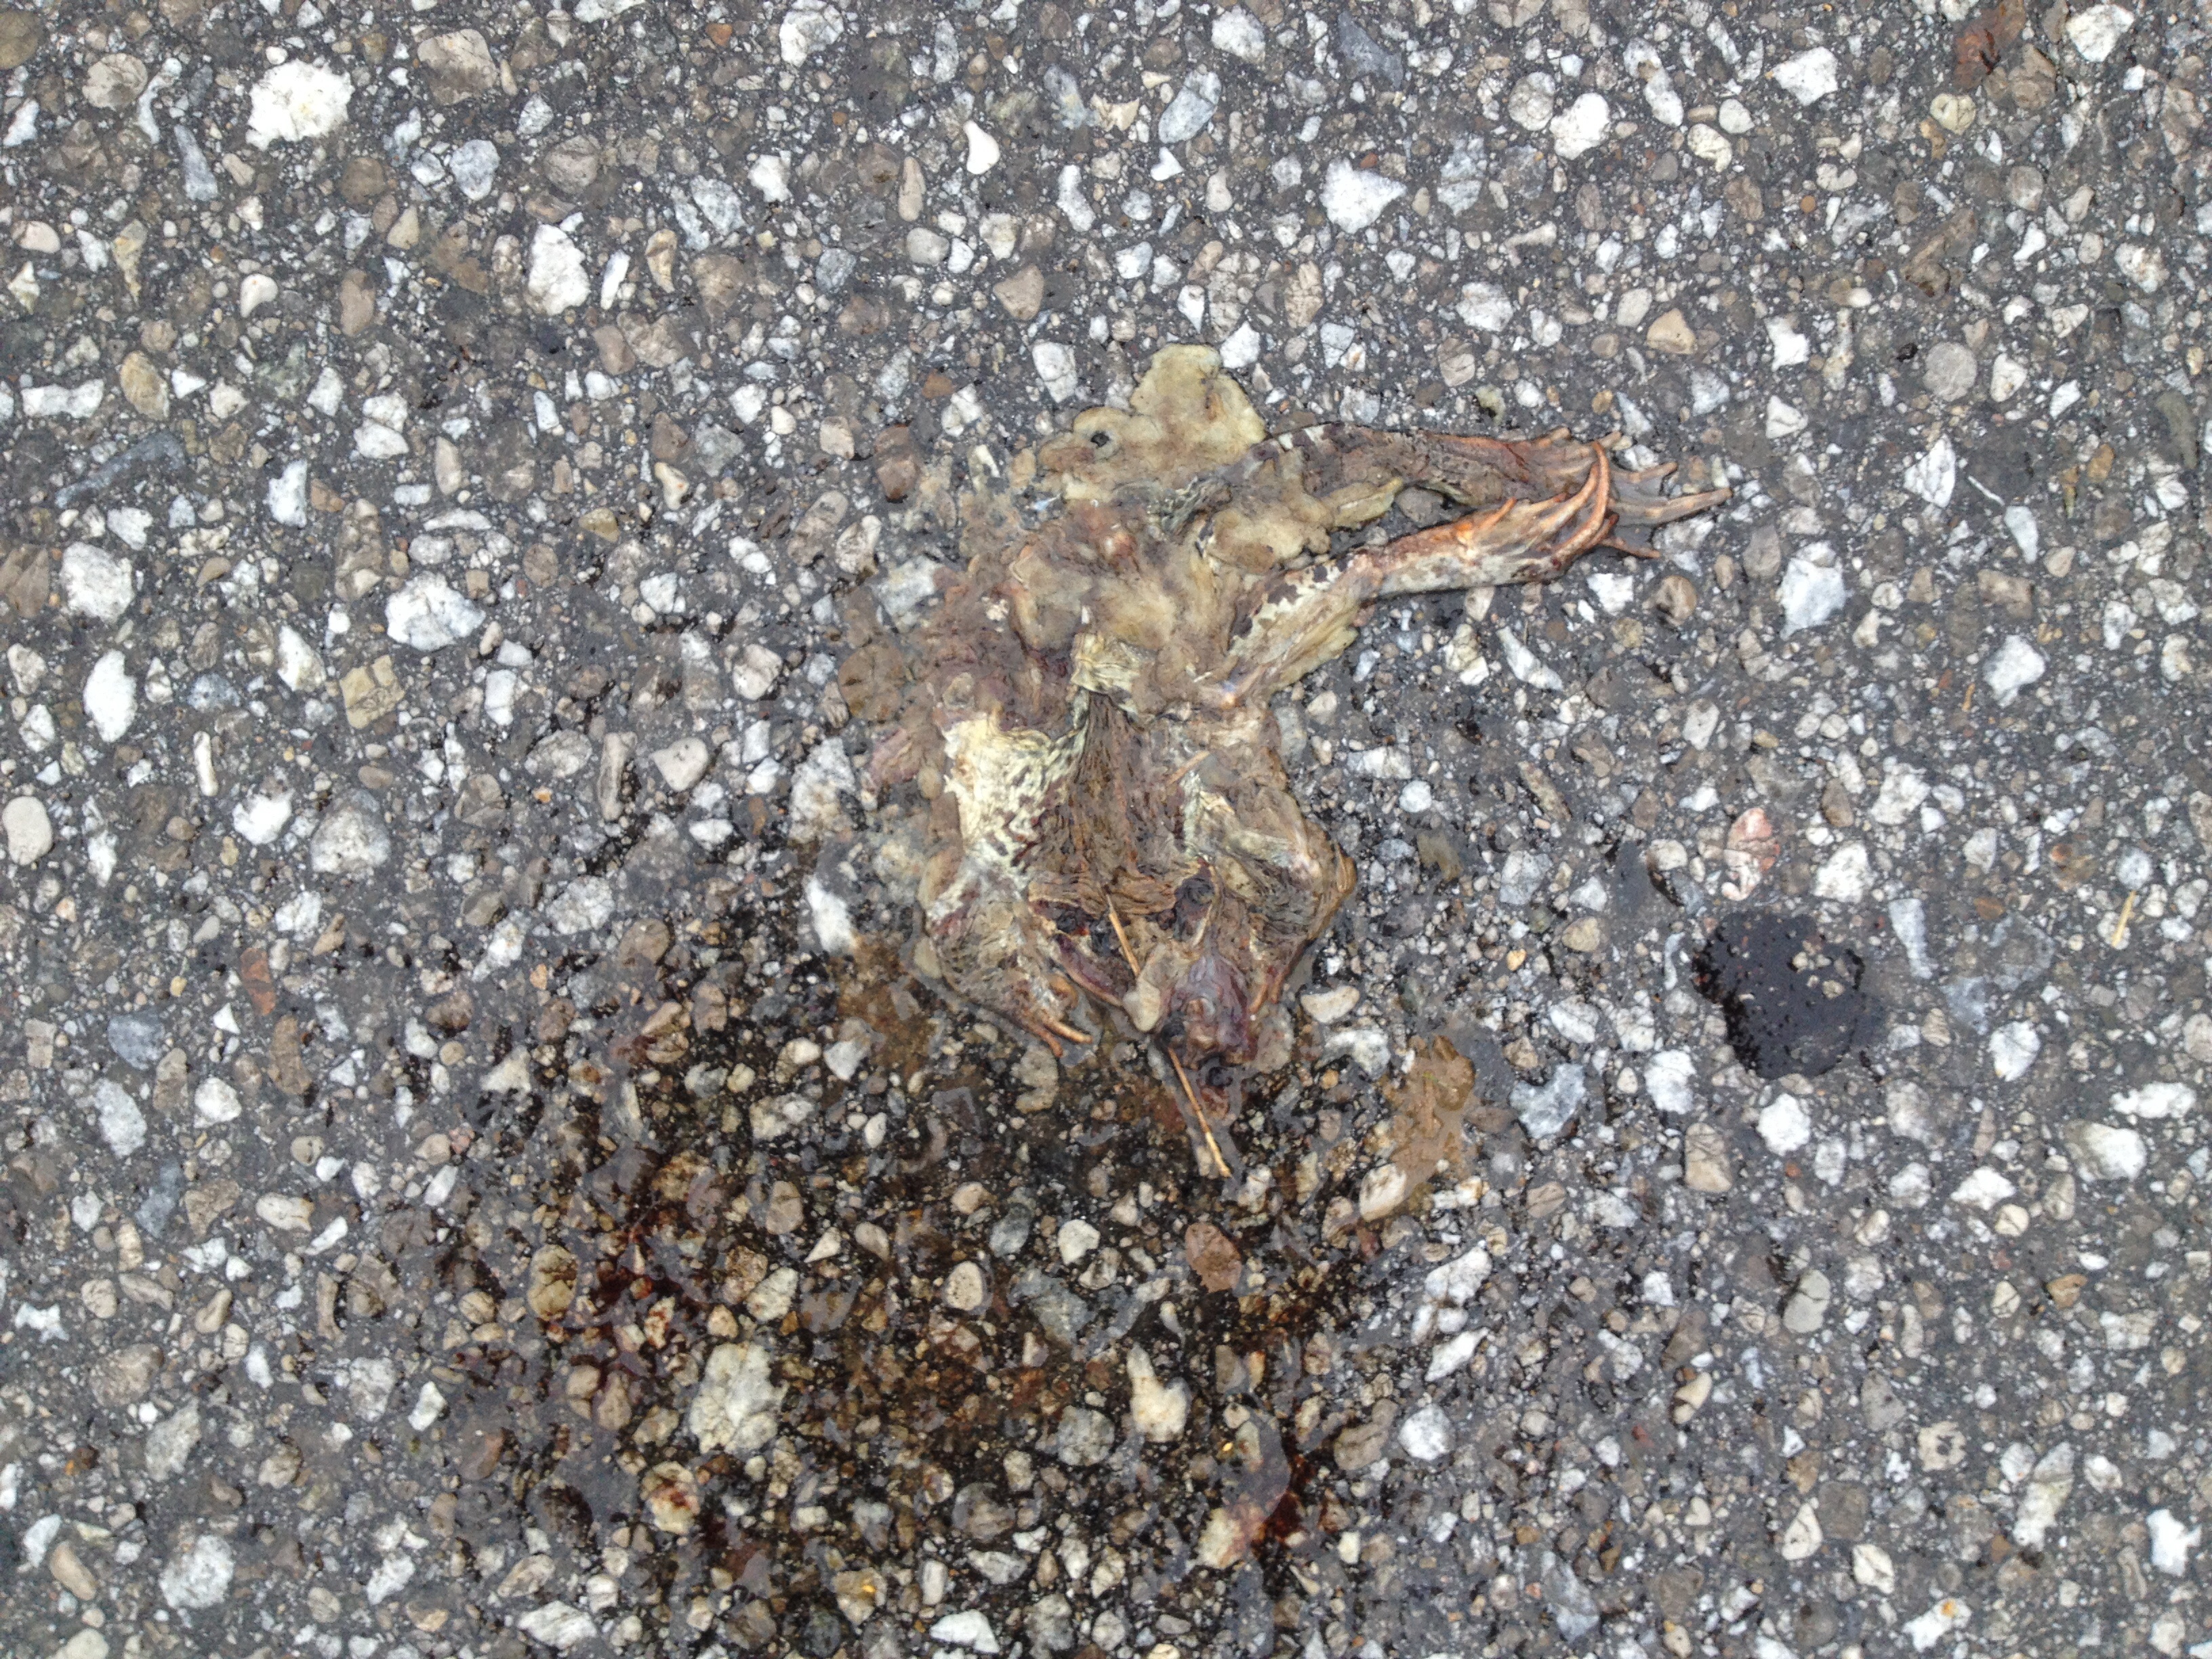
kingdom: Animalia
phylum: Chordata
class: Amphibia
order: Anura
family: Bufonidae
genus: Bufo
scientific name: Bufo bufo
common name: Common toad
